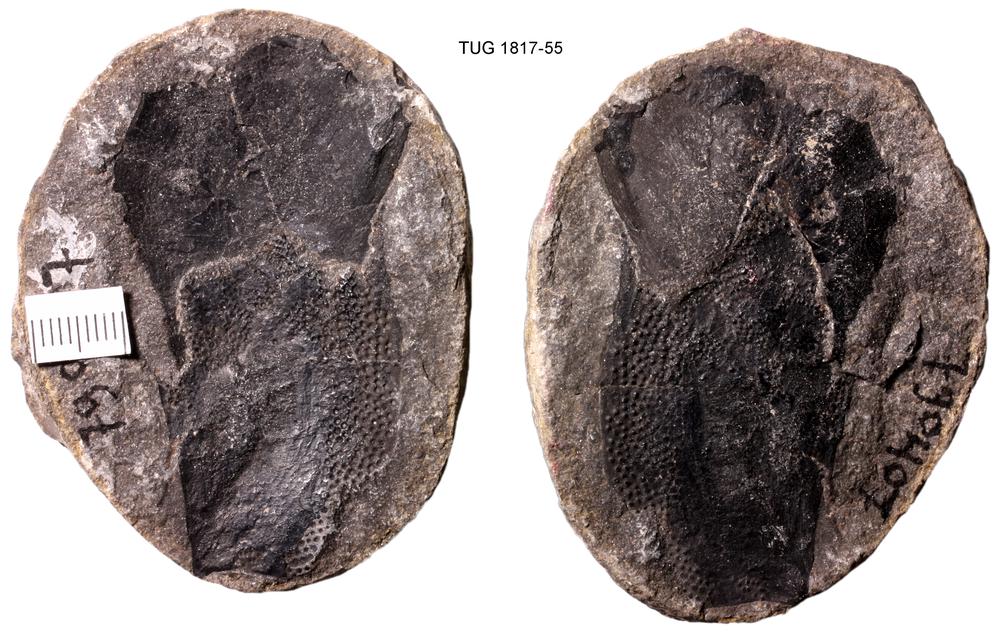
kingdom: Animalia
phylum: Chordata
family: Coccosteidae
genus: Coccosteus
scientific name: Coccosteus cuspidatus
